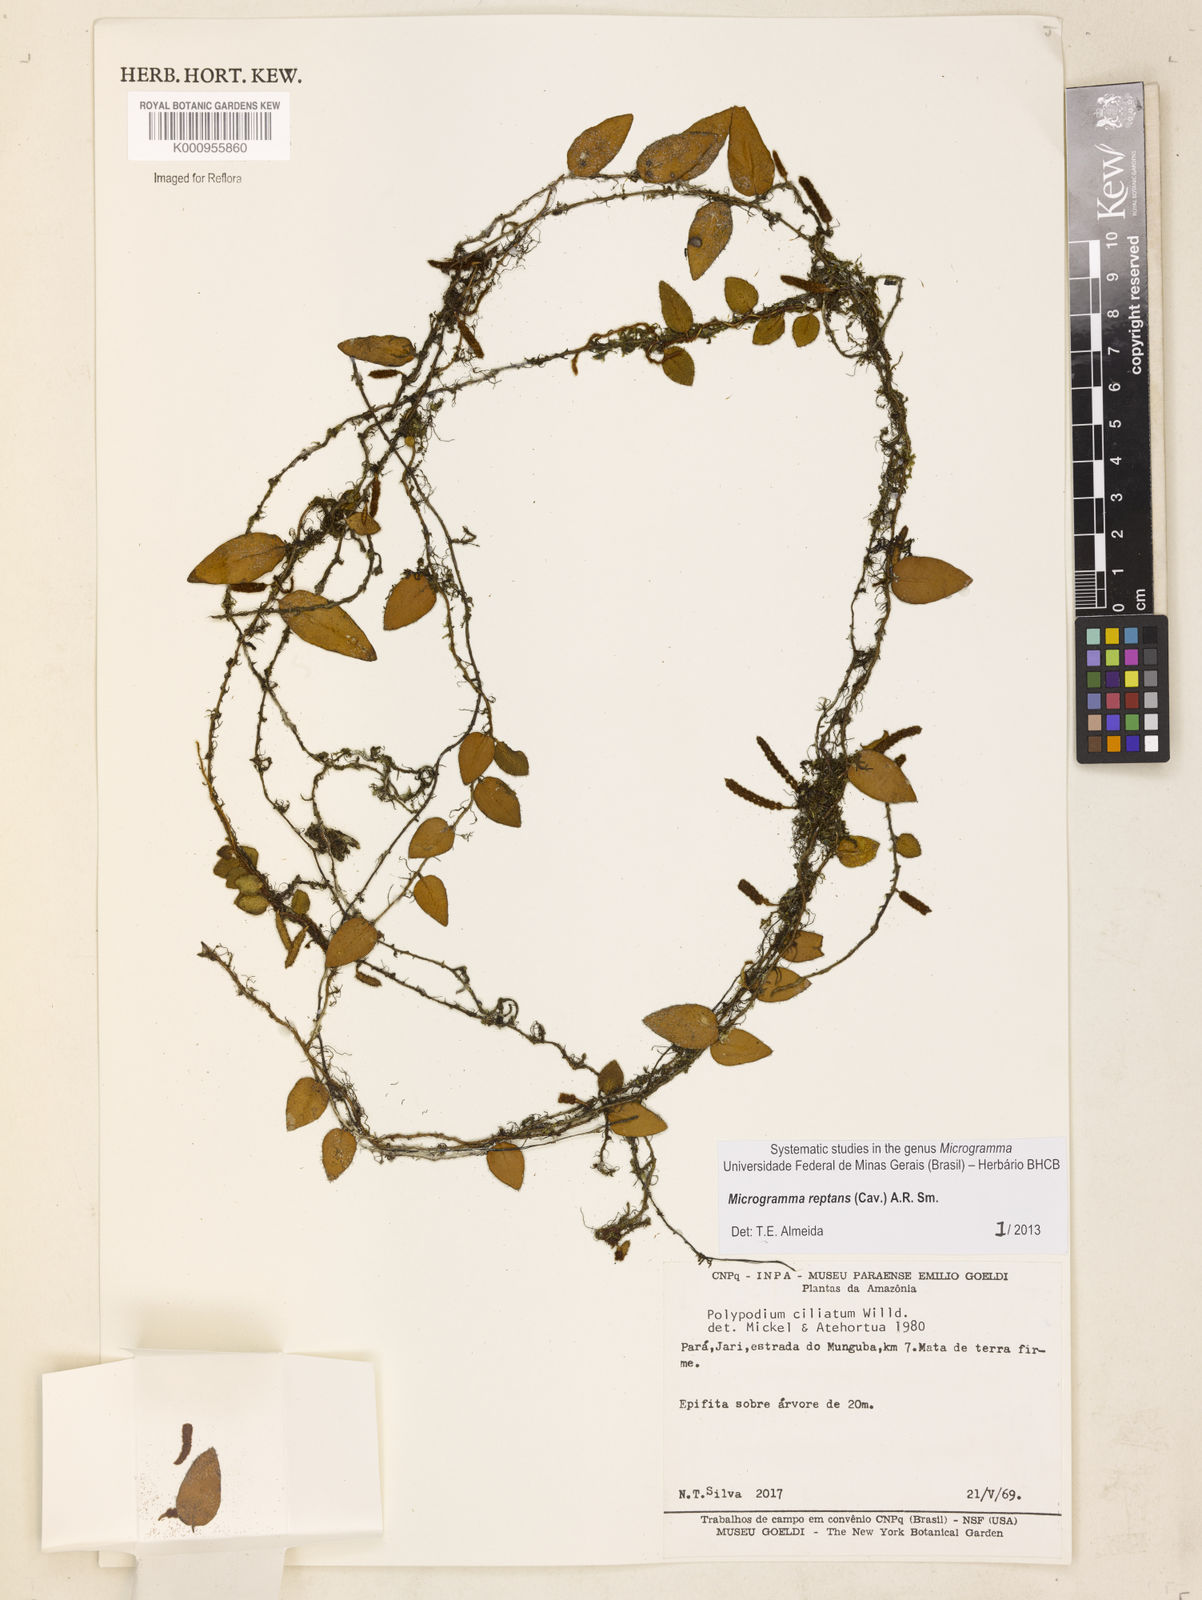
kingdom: Plantae
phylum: Tracheophyta
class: Polypodiopsida
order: Polypodiales
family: Polypodiaceae
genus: Microgramma
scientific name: Microgramma reptans
